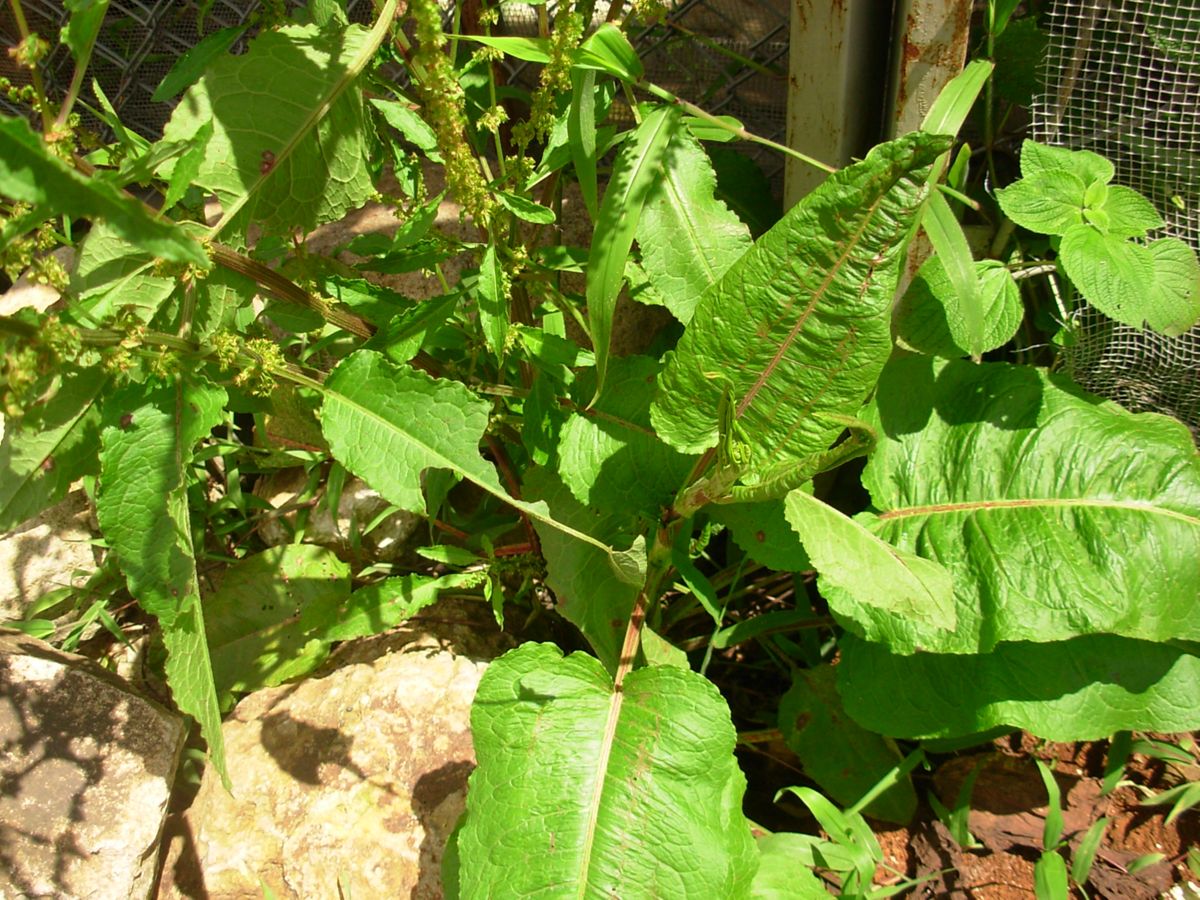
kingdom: Plantae
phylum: Tracheophyta
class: Magnoliopsida
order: Caryophyllales
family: Polygonaceae
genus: Rumex
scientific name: Rumex crispus
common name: Curled dock
